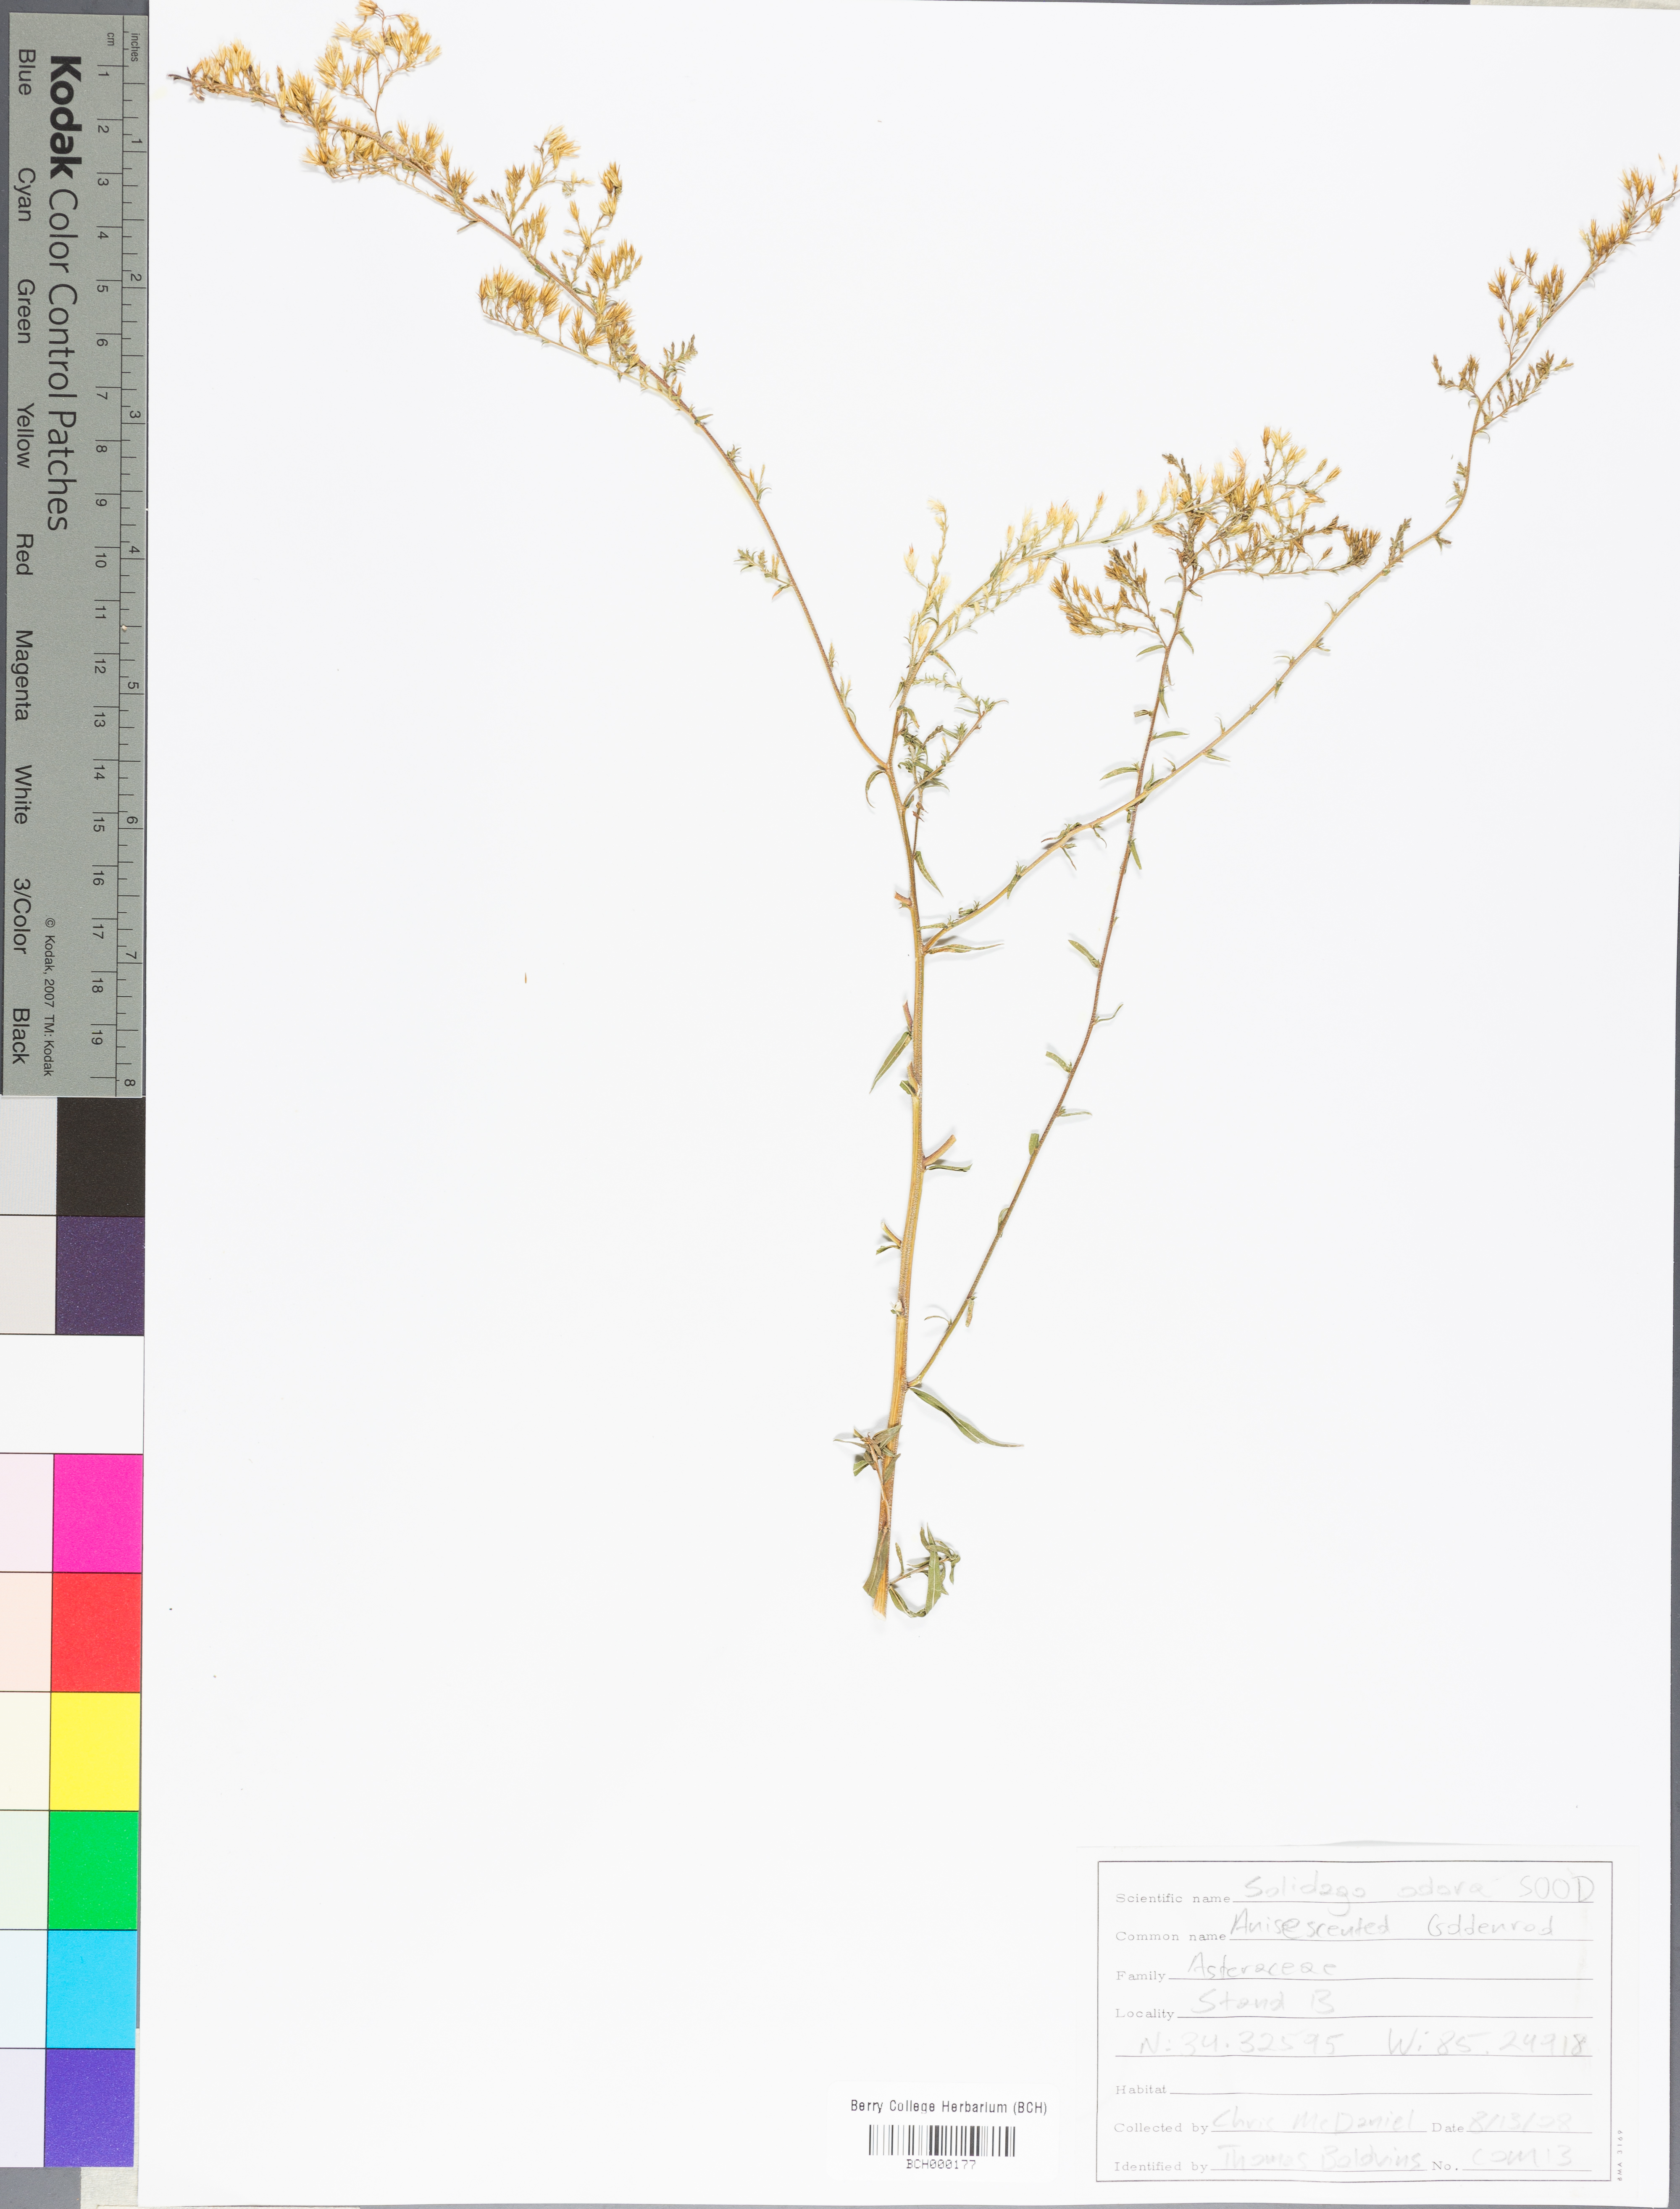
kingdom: Plantae
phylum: Tracheophyta
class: Magnoliopsida
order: Asterales
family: Asteraceae
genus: Solidago
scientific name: Solidago odora
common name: Anise-scented goldenrod
